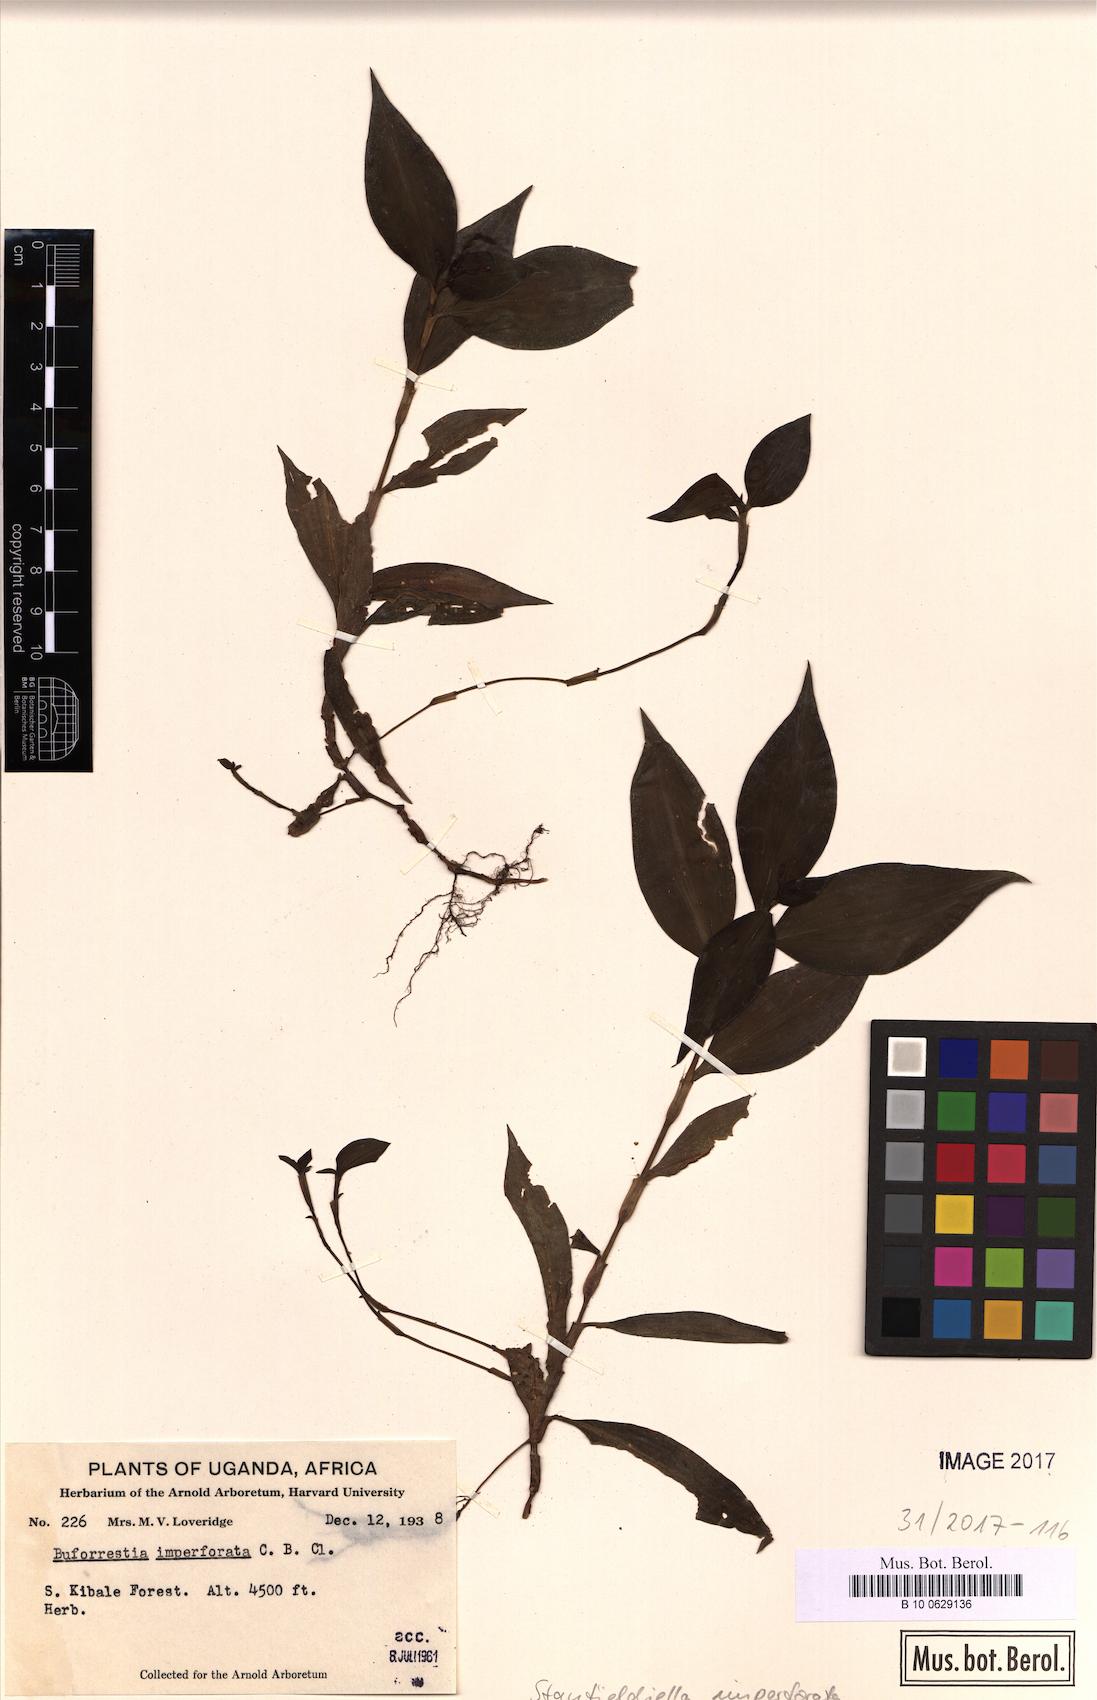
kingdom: Plantae
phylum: Tracheophyta
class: Liliopsida
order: Commelinales
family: Commelinaceae
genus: Stanfieldiella
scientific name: Stanfieldiella imperforata
